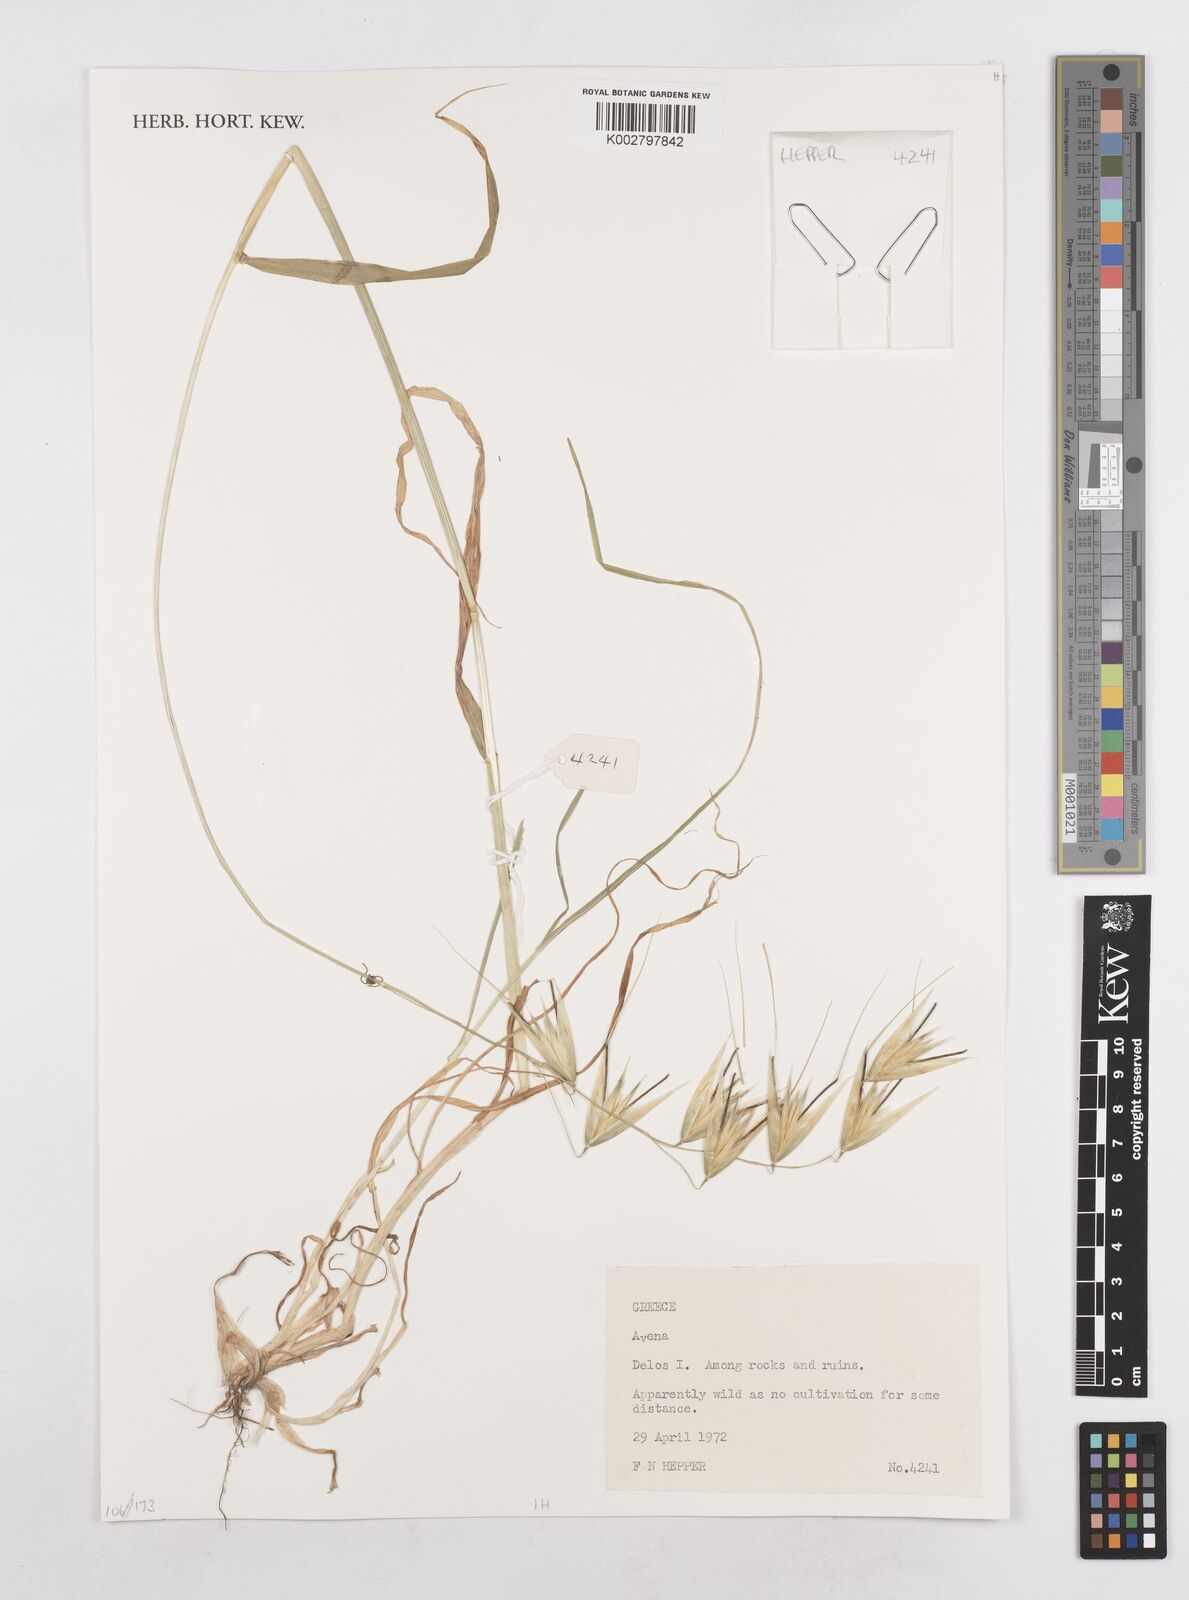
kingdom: Plantae
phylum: Tracheophyta
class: Liliopsida
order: Poales
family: Poaceae
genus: Avena
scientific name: Avena
